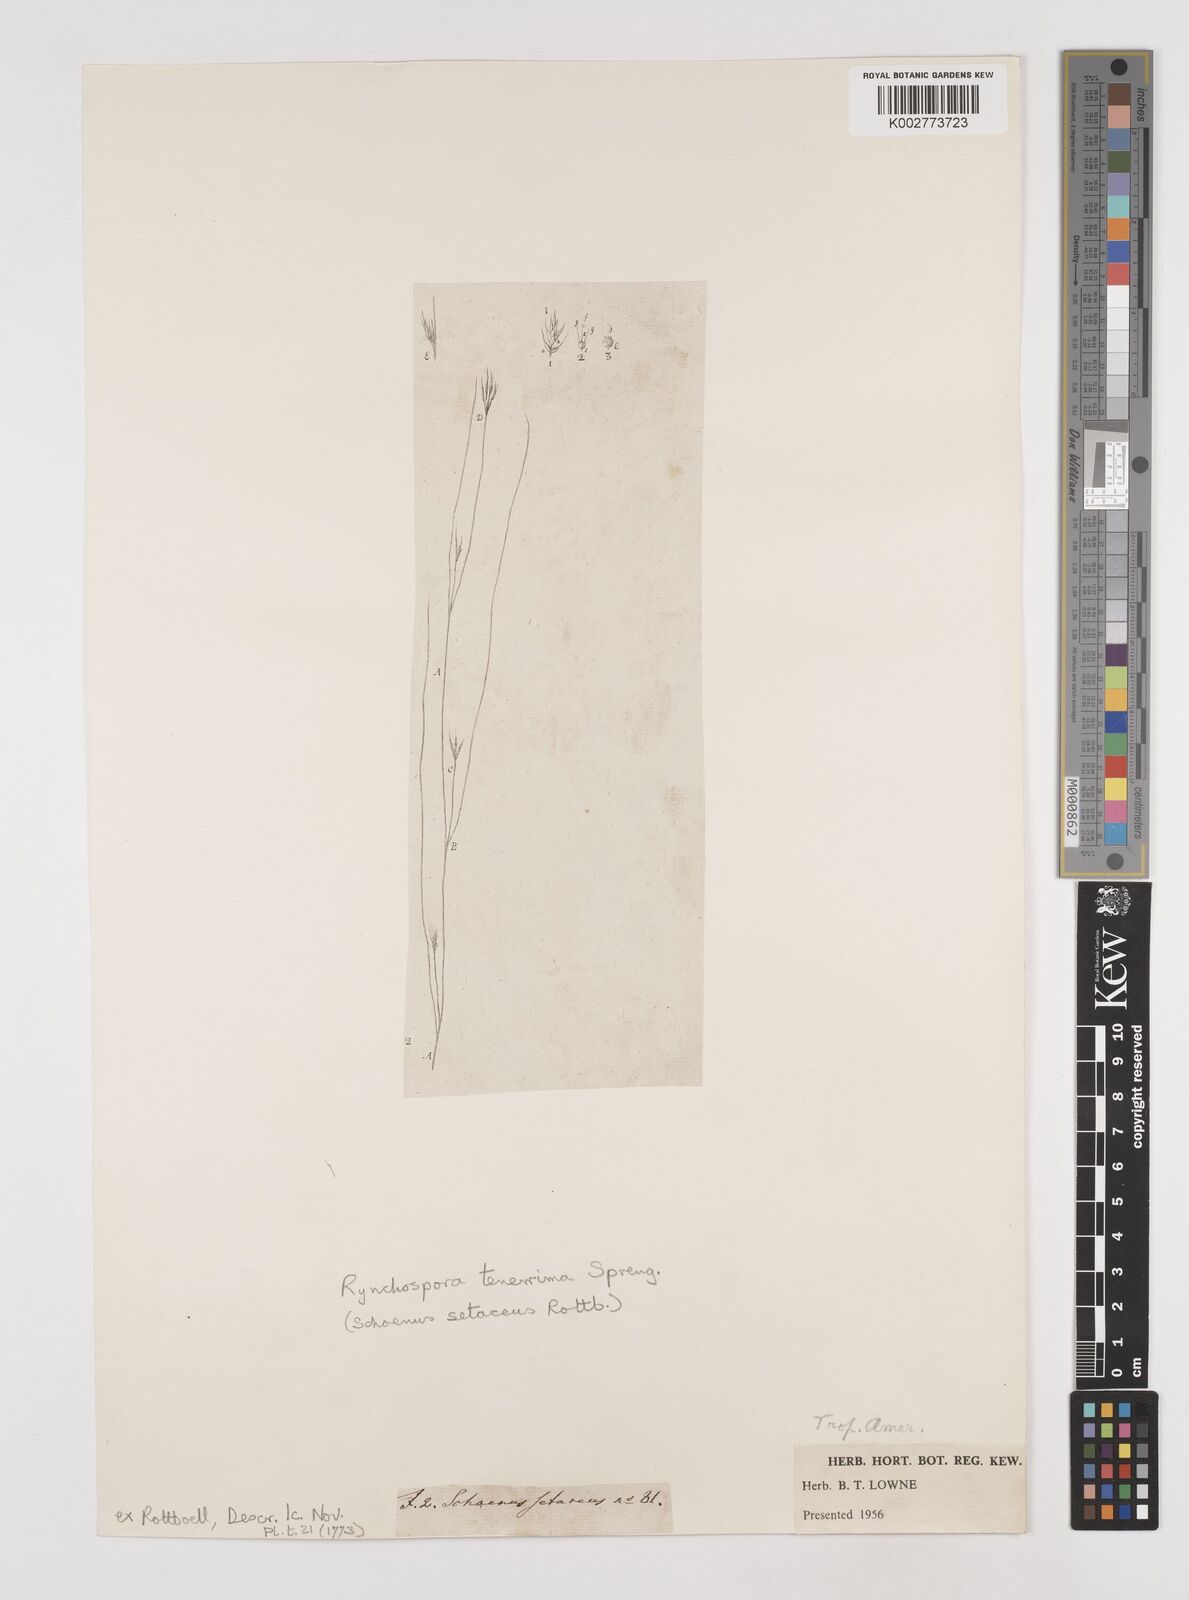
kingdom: Plantae
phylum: Tracheophyta
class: Liliopsida
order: Poales
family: Cyperaceae
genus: Rhynchospora
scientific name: Rhynchospora tenuis
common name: Quill beaksedge
